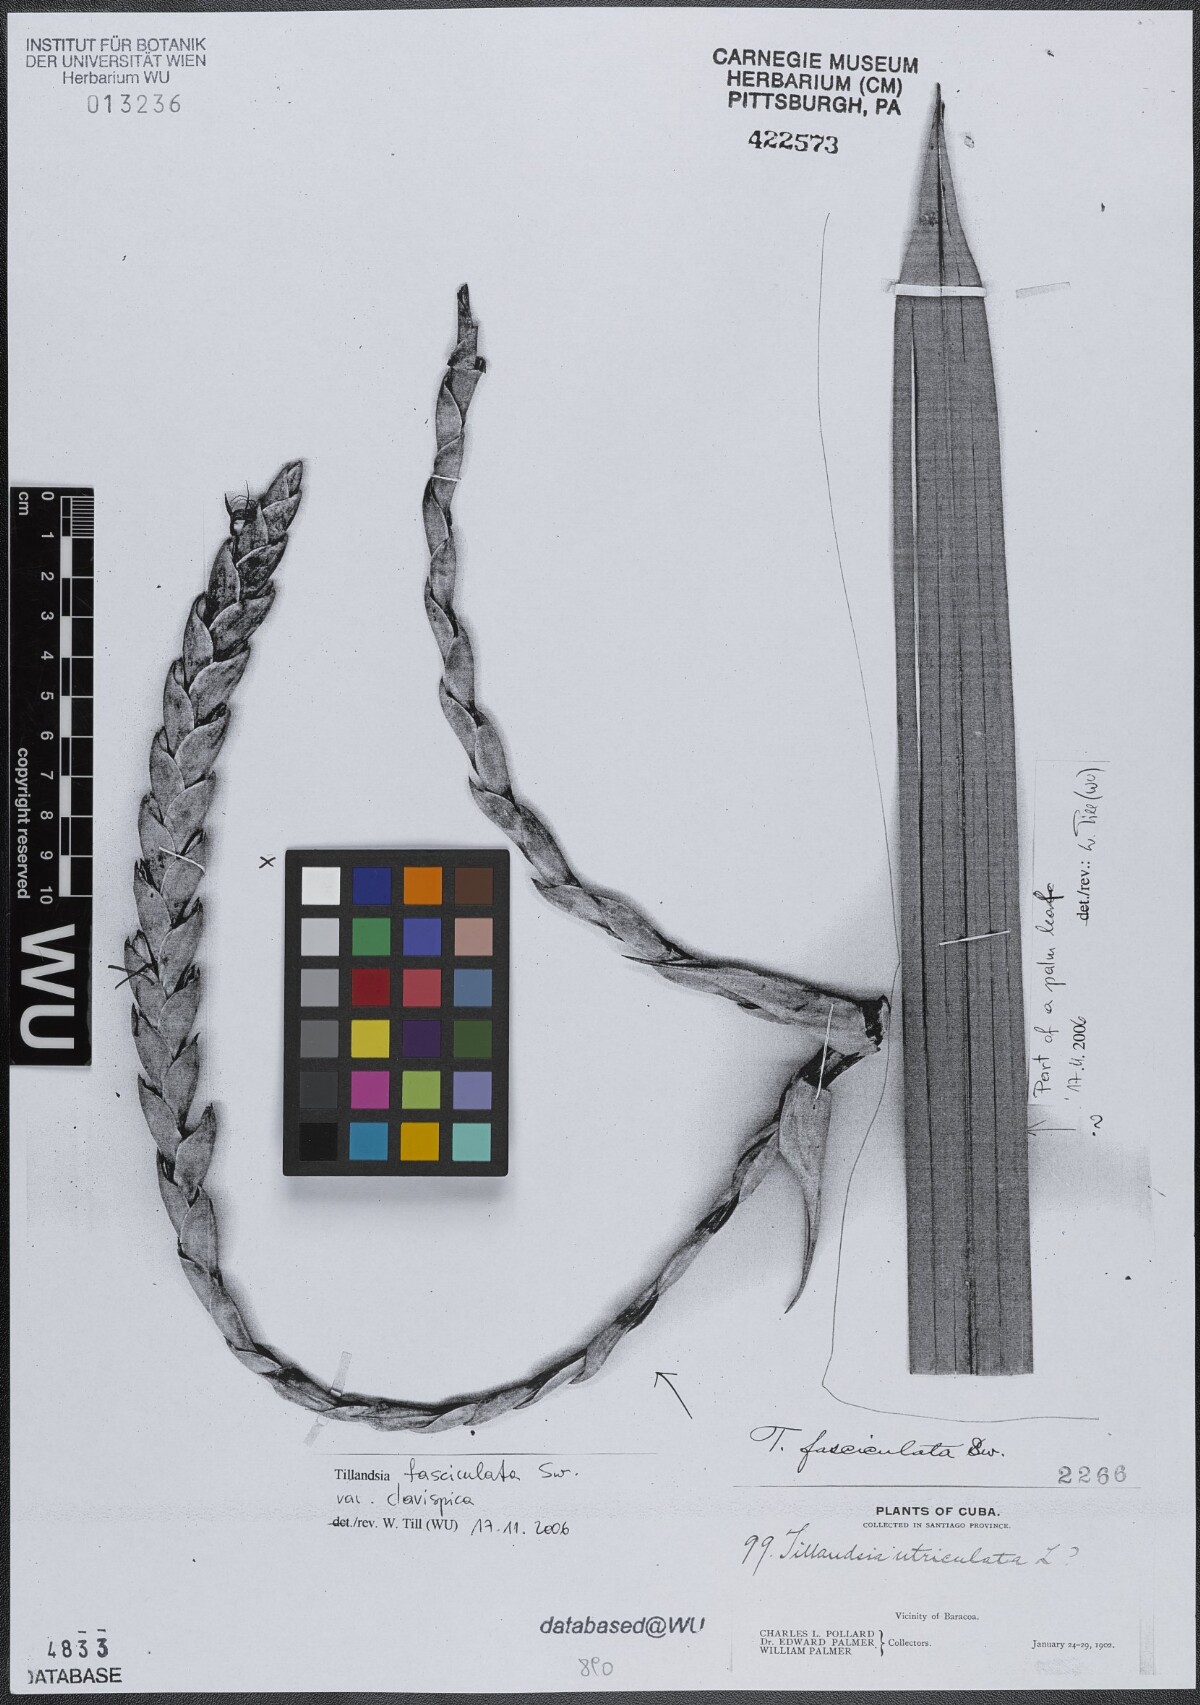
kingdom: Plantae
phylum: Tracheophyta
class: Liliopsida
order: Poales
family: Bromeliaceae
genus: Tillandsia
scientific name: Tillandsia fasciculata
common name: Giant airplant
